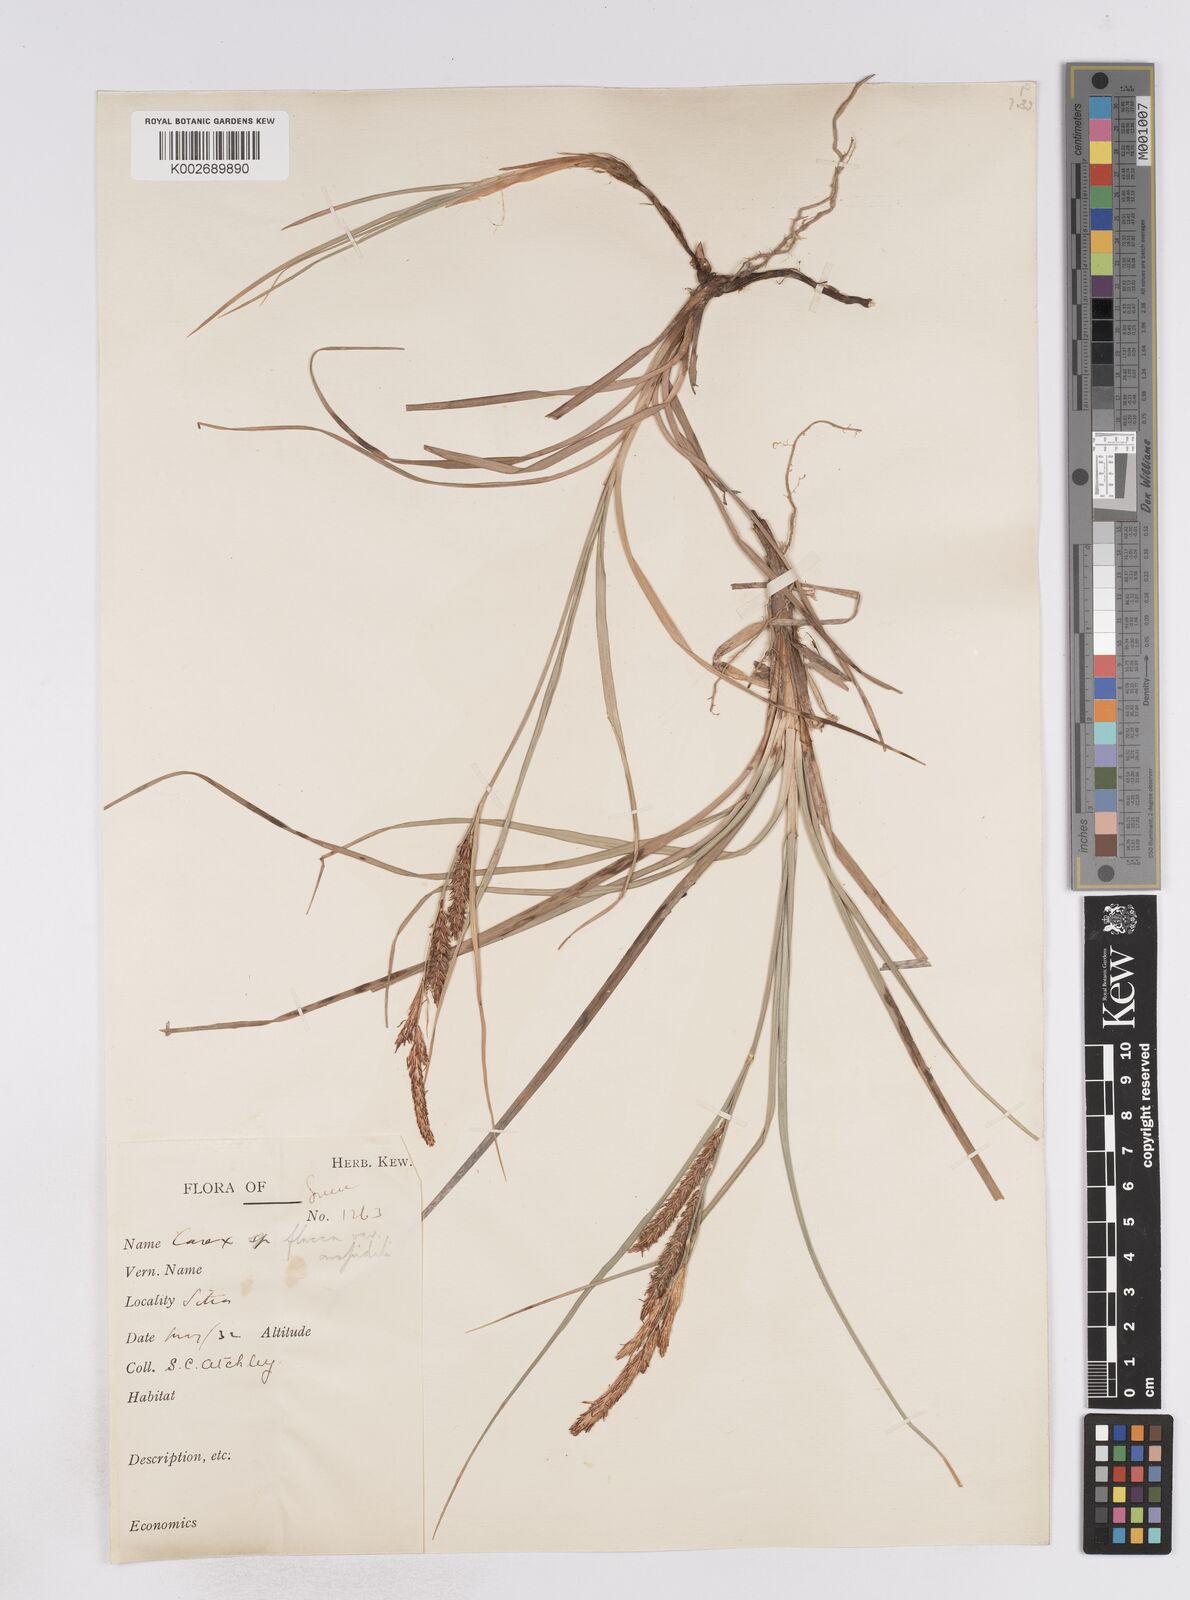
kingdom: Plantae
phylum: Tracheophyta
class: Liliopsida
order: Poales
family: Cyperaceae
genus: Carex
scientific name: Carex flacca
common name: Glaucous sedge
